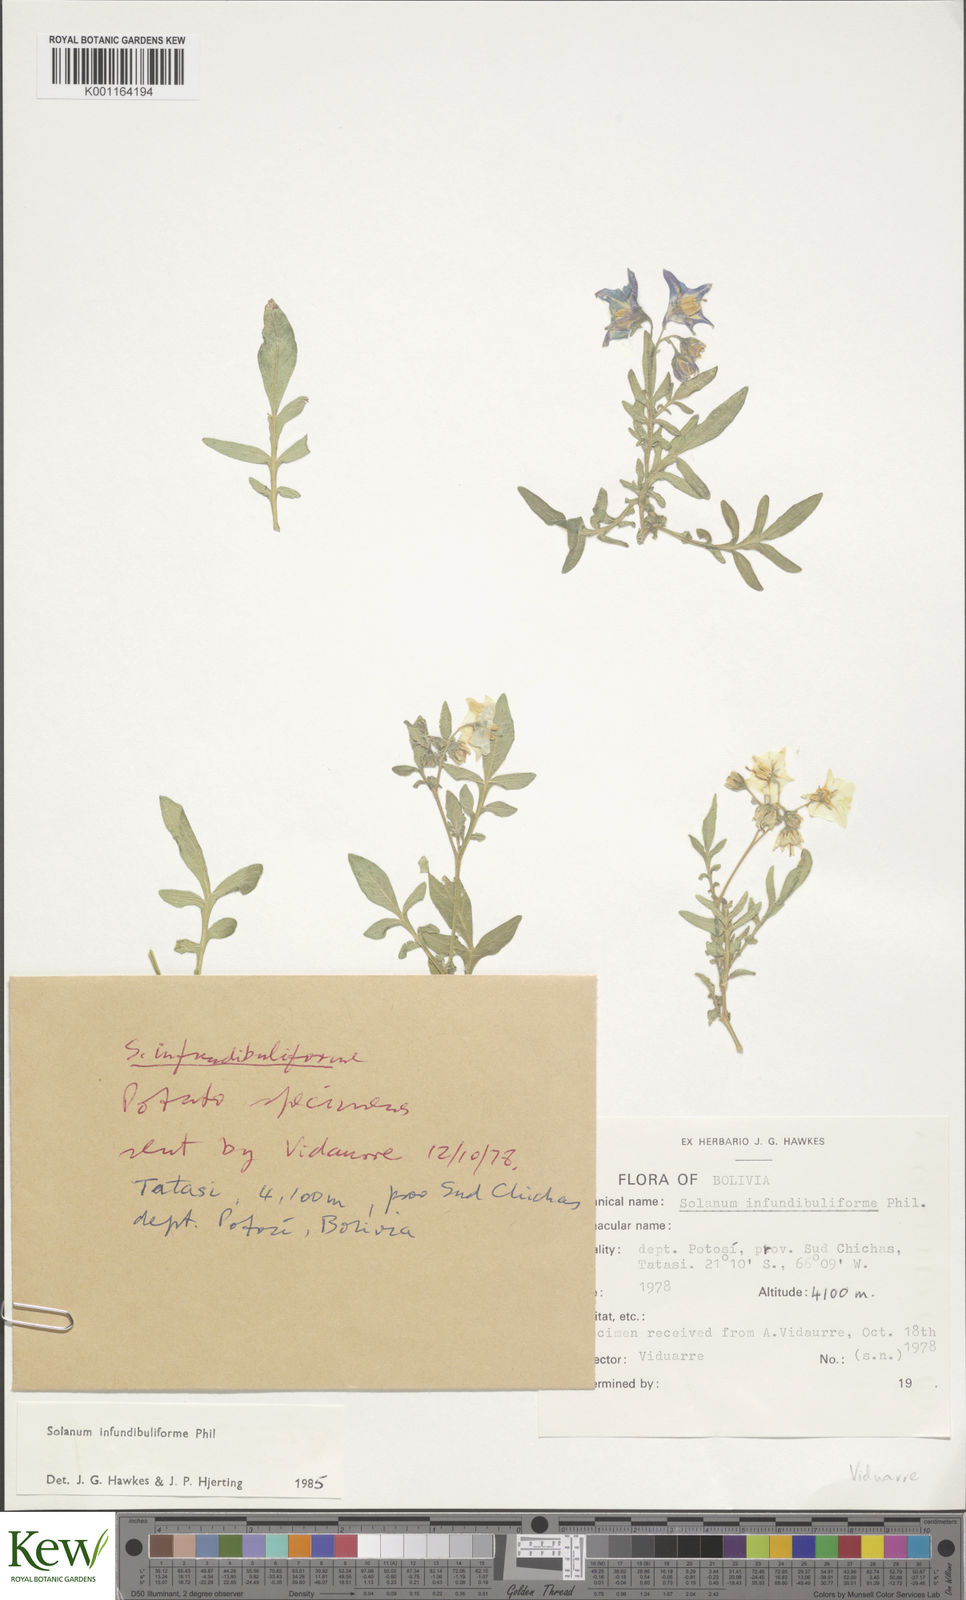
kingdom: Plantae
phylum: Tracheophyta
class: Magnoliopsida
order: Solanales
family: Solanaceae
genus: Solanum
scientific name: Solanum infundibuliforme
